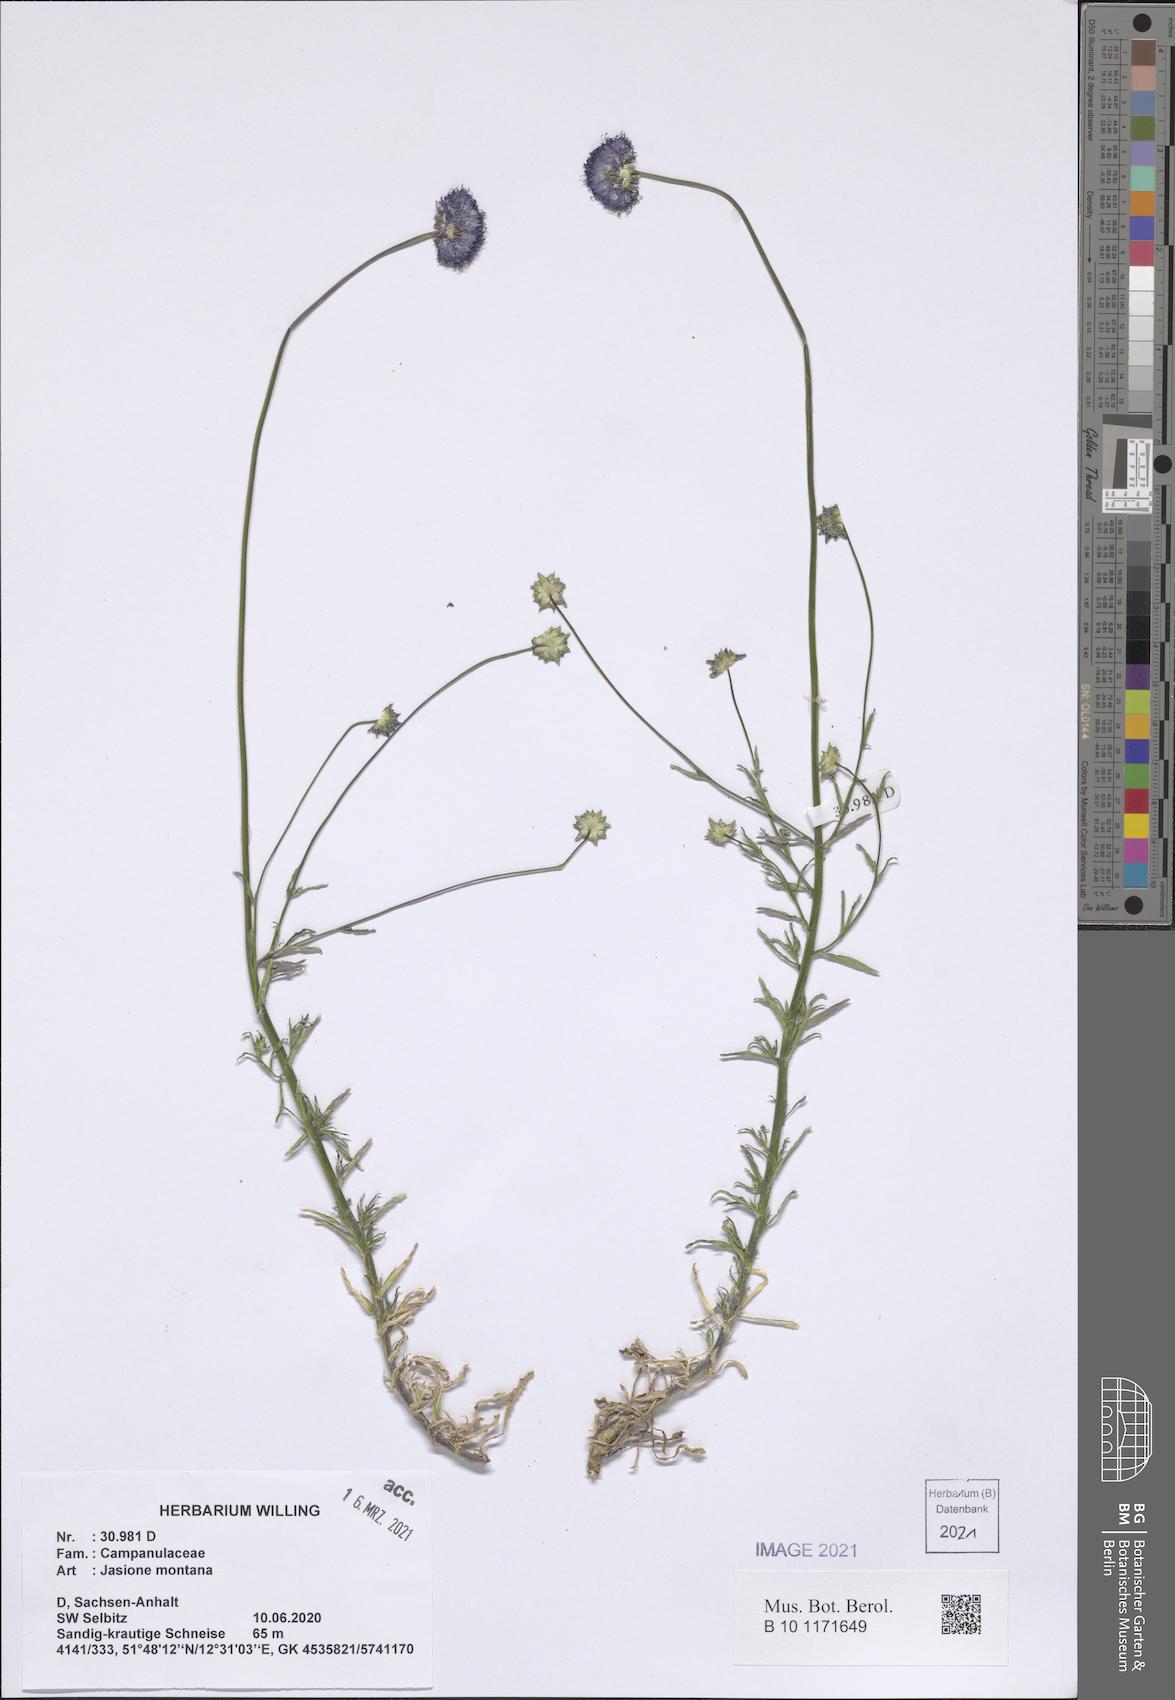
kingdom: Plantae
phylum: Tracheophyta
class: Magnoliopsida
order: Asterales
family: Campanulaceae
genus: Jasione
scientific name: Jasione montana
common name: Sheep's-bit
